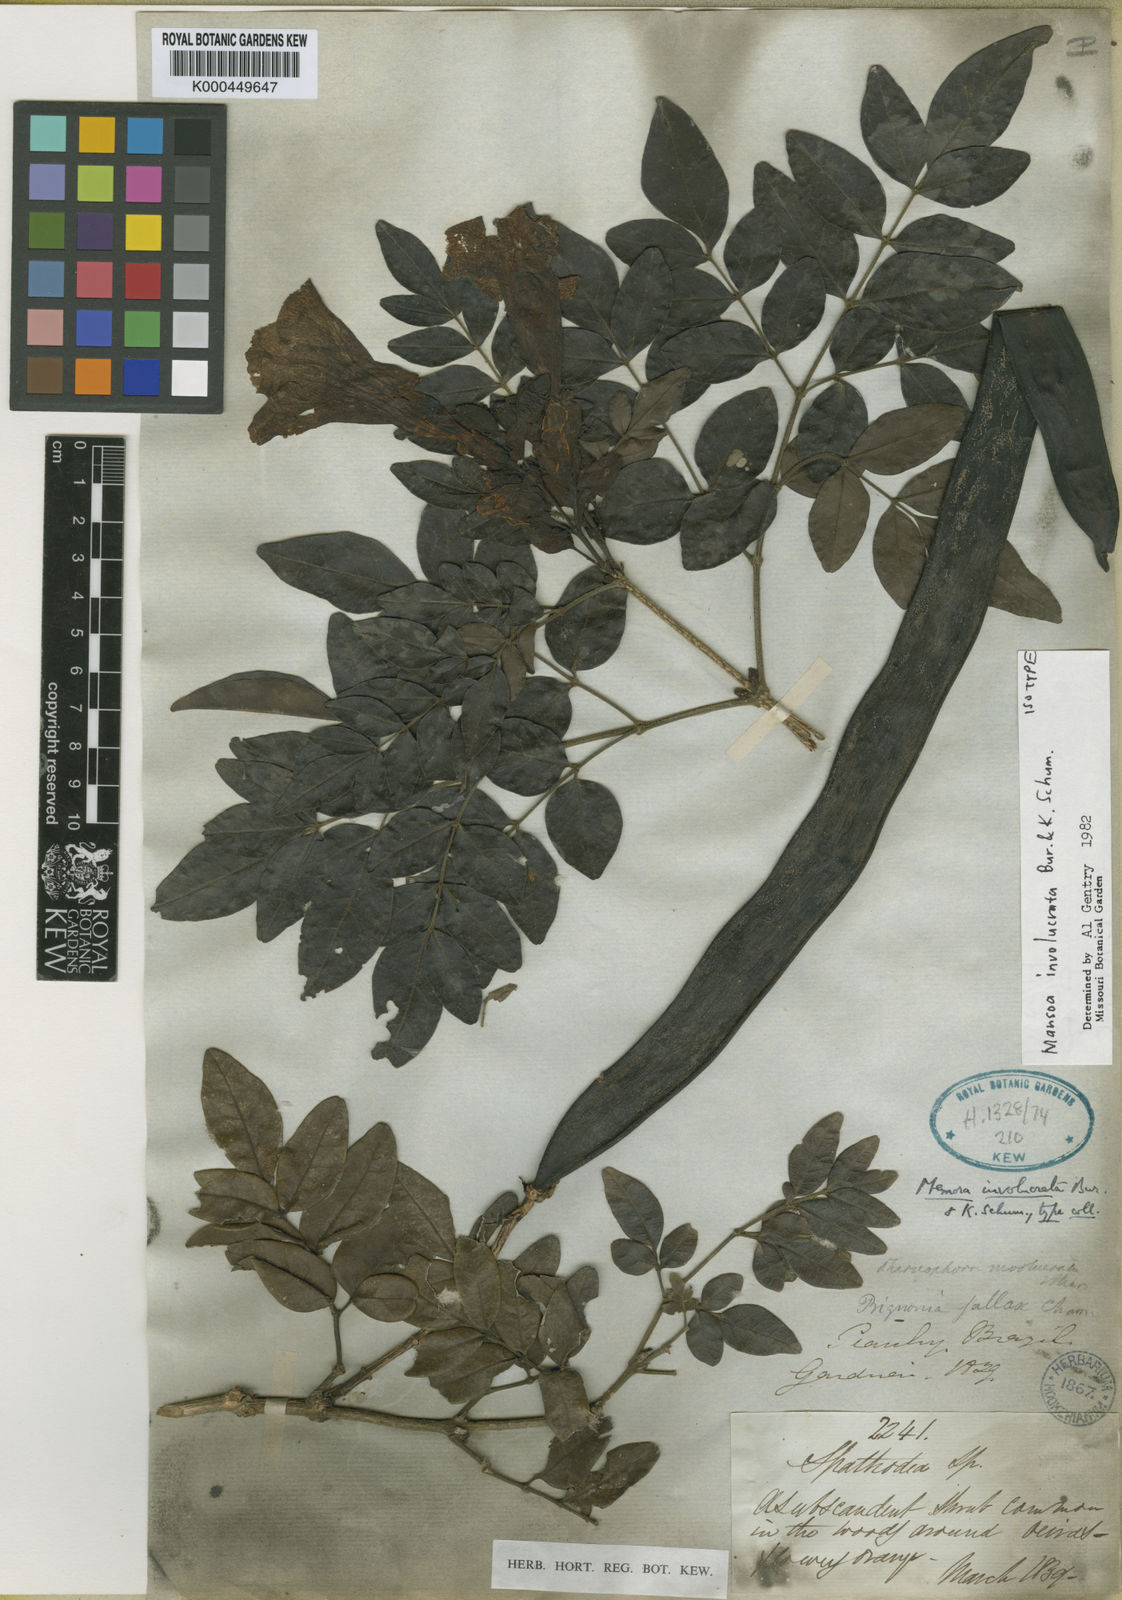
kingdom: Plantae
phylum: Tracheophyta
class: Magnoliopsida
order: Lamiales
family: Bignoniaceae
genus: Mansoa
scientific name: Mansoa
